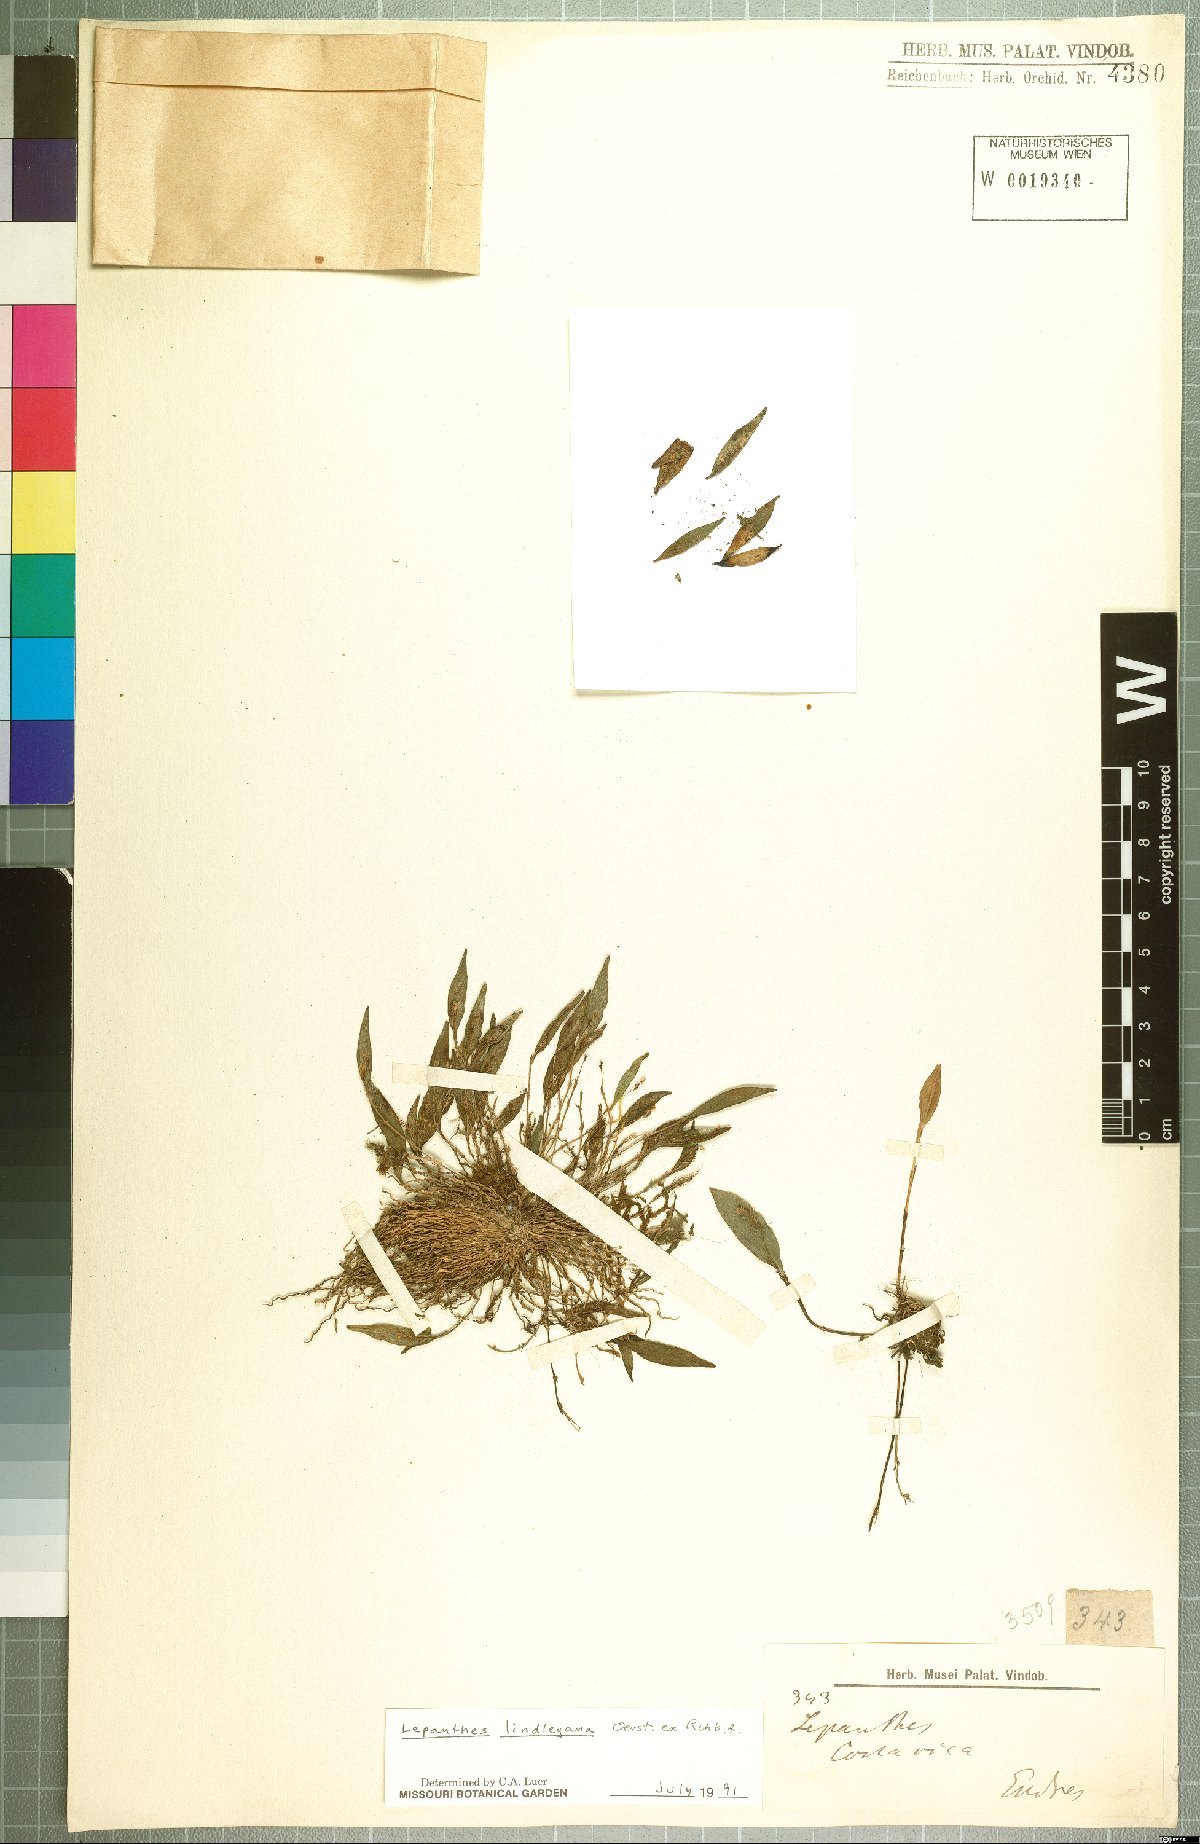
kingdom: Plantae
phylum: Tracheophyta
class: Liliopsida
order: Asparagales
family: Orchidaceae
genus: Lepanthes
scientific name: Lepanthes lindleyana
